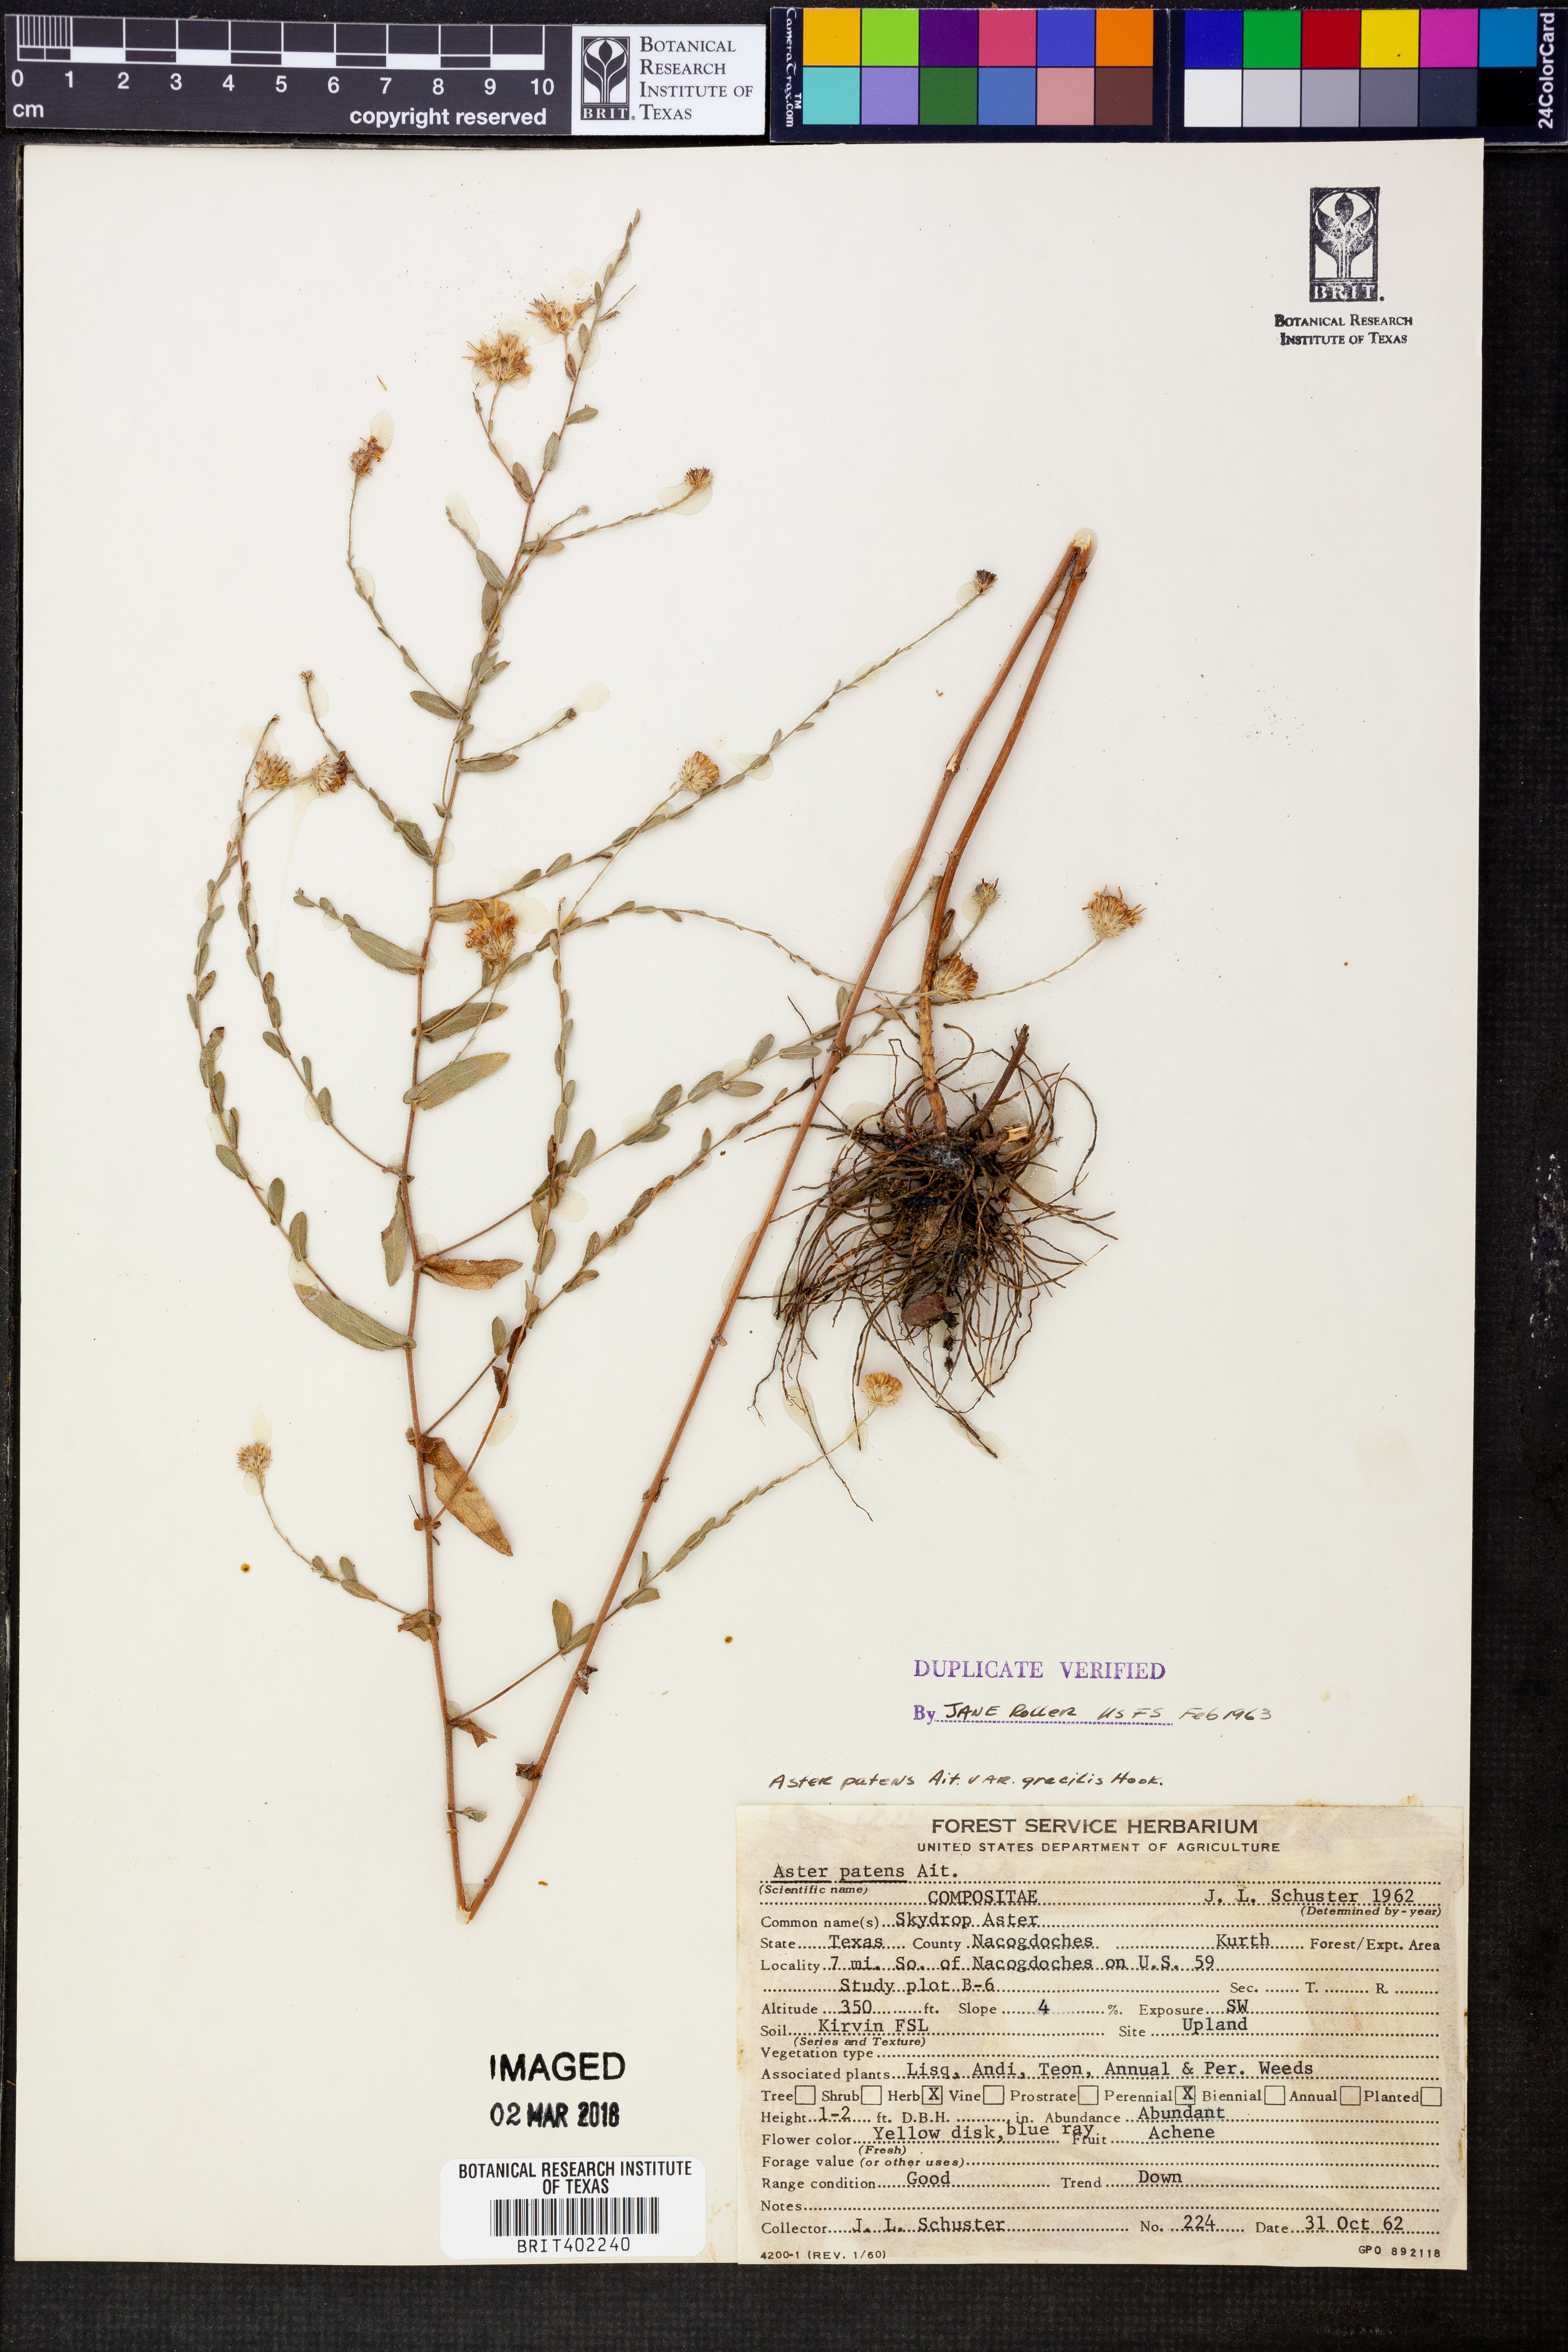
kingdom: Plantae
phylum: Tracheophyta
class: Magnoliopsida
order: Asterales
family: Asteraceae
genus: Symphyotrichum
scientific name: Symphyotrichum patens
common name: Late purple aster
